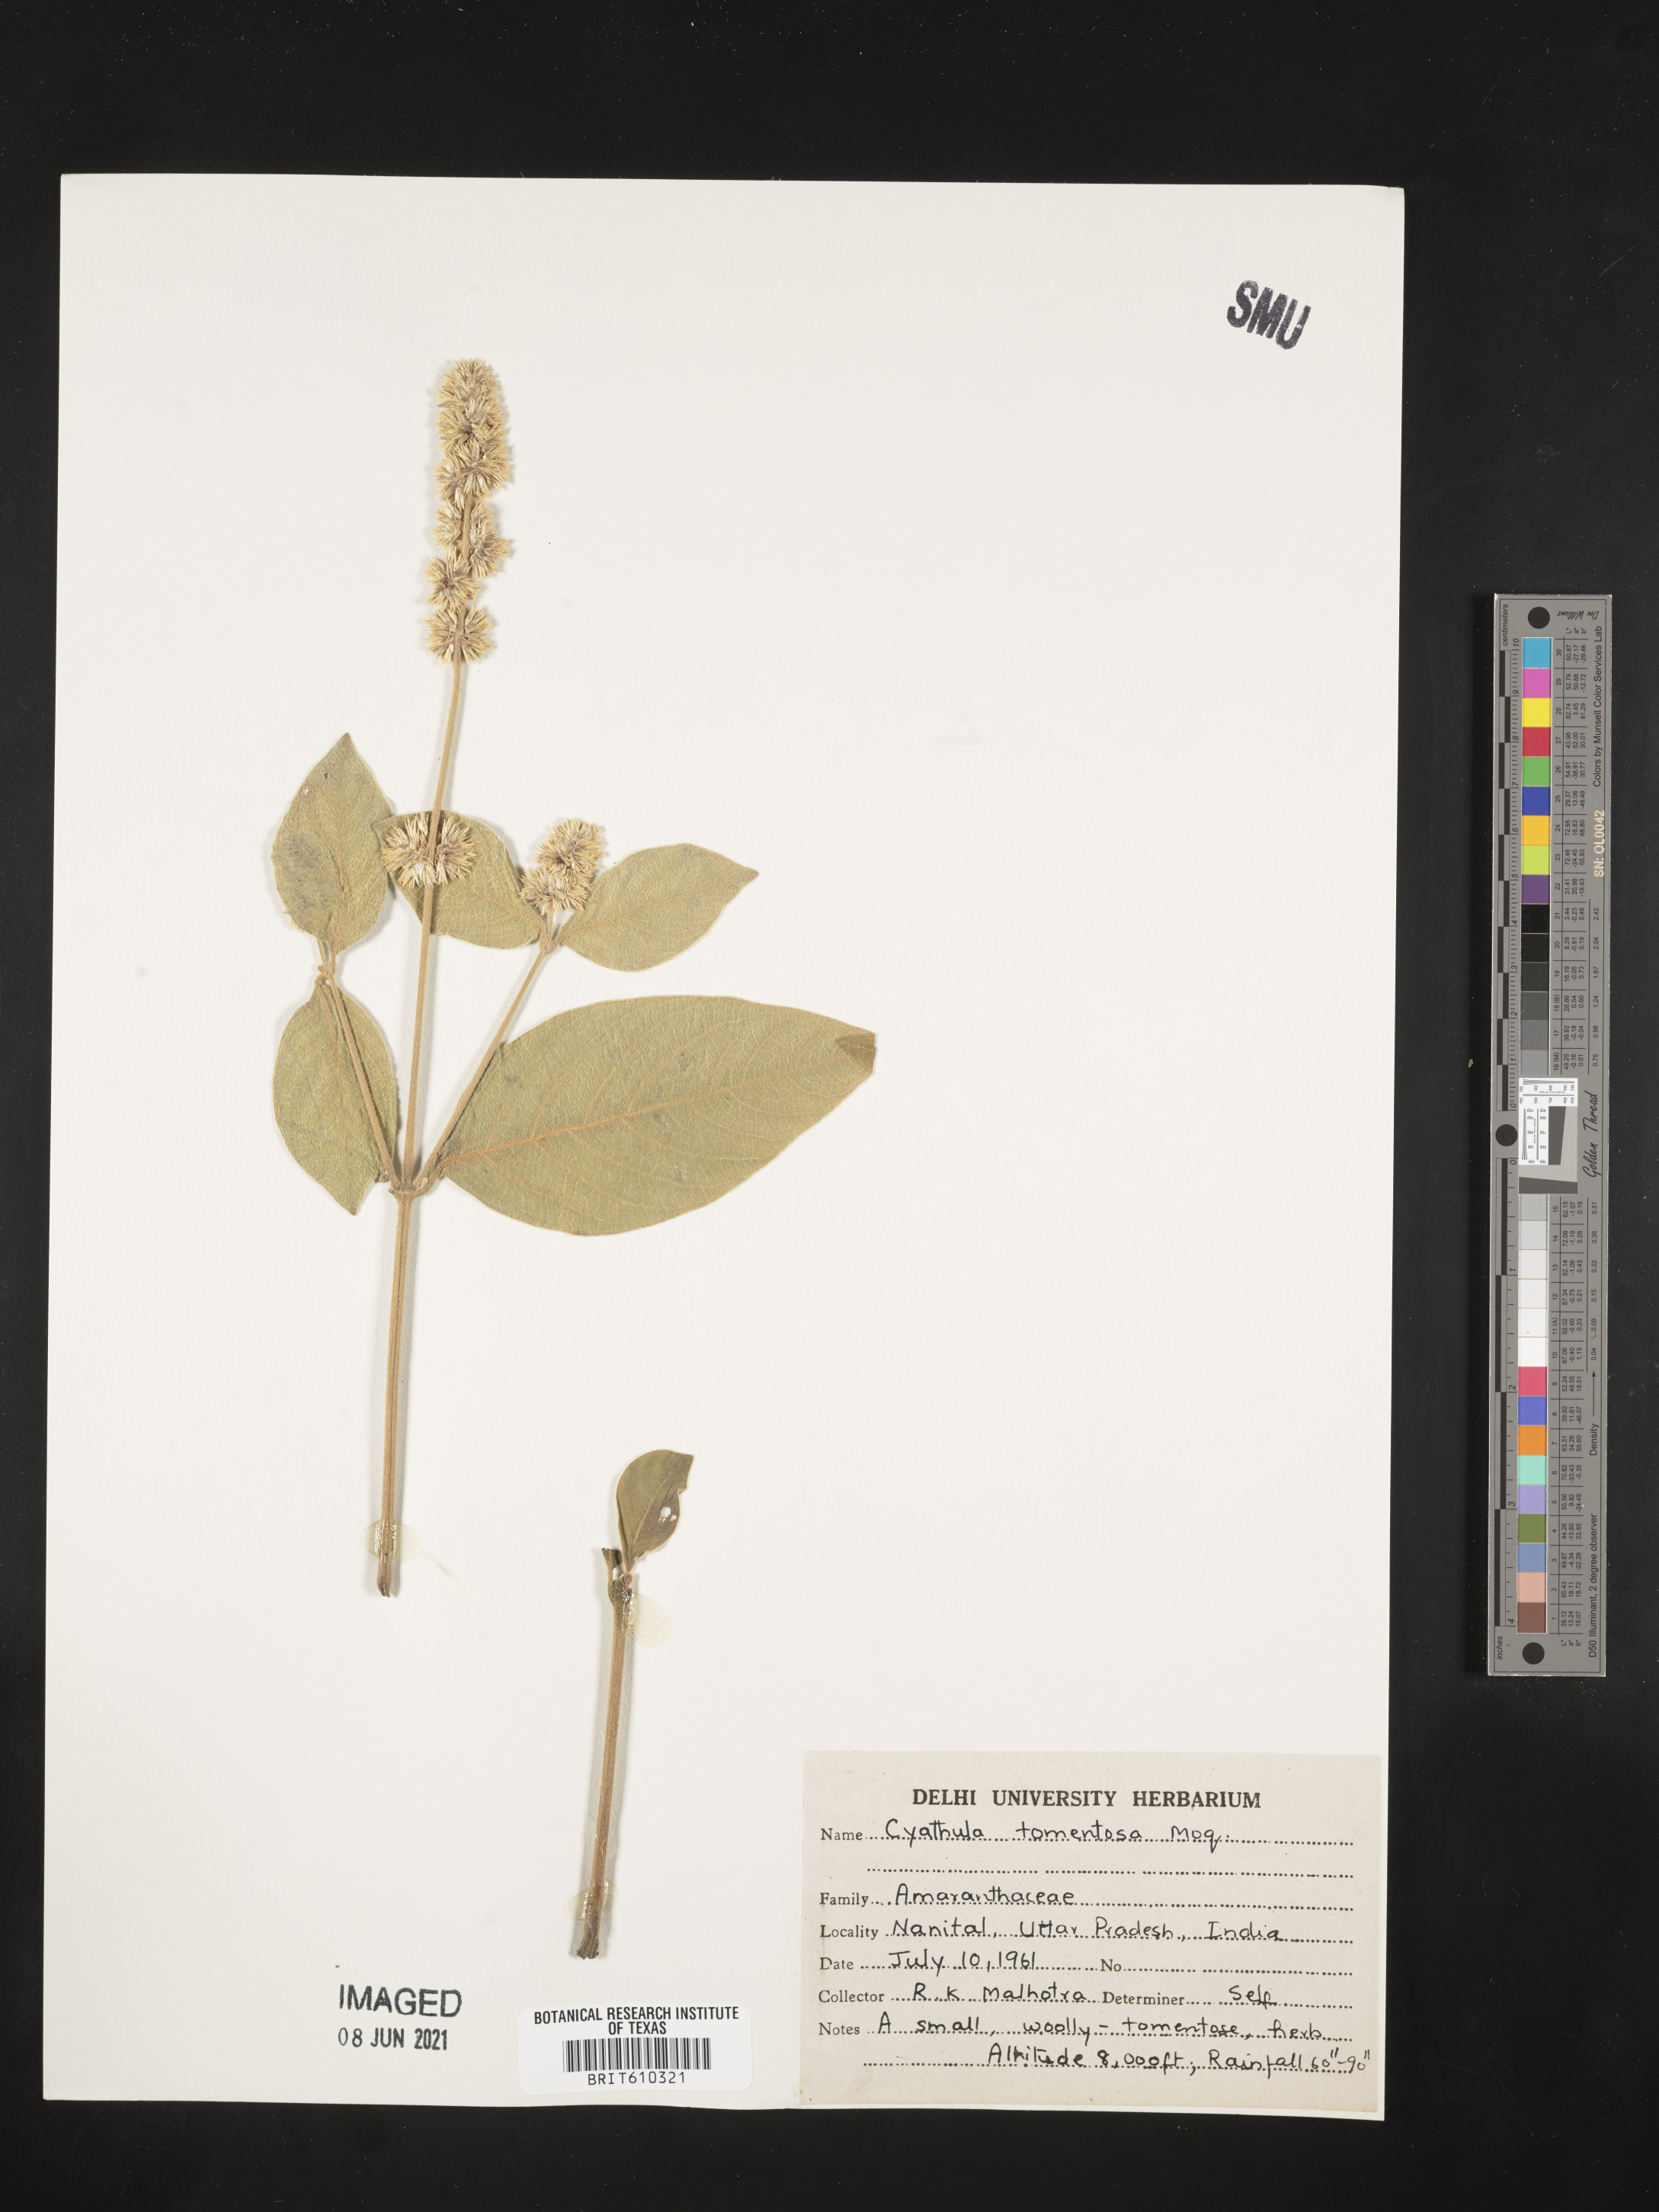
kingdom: Plantae
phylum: Tracheophyta
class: Magnoliopsida
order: Caryophyllales
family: Amaranthaceae
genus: Cyathula
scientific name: Cyathula tomentosa
